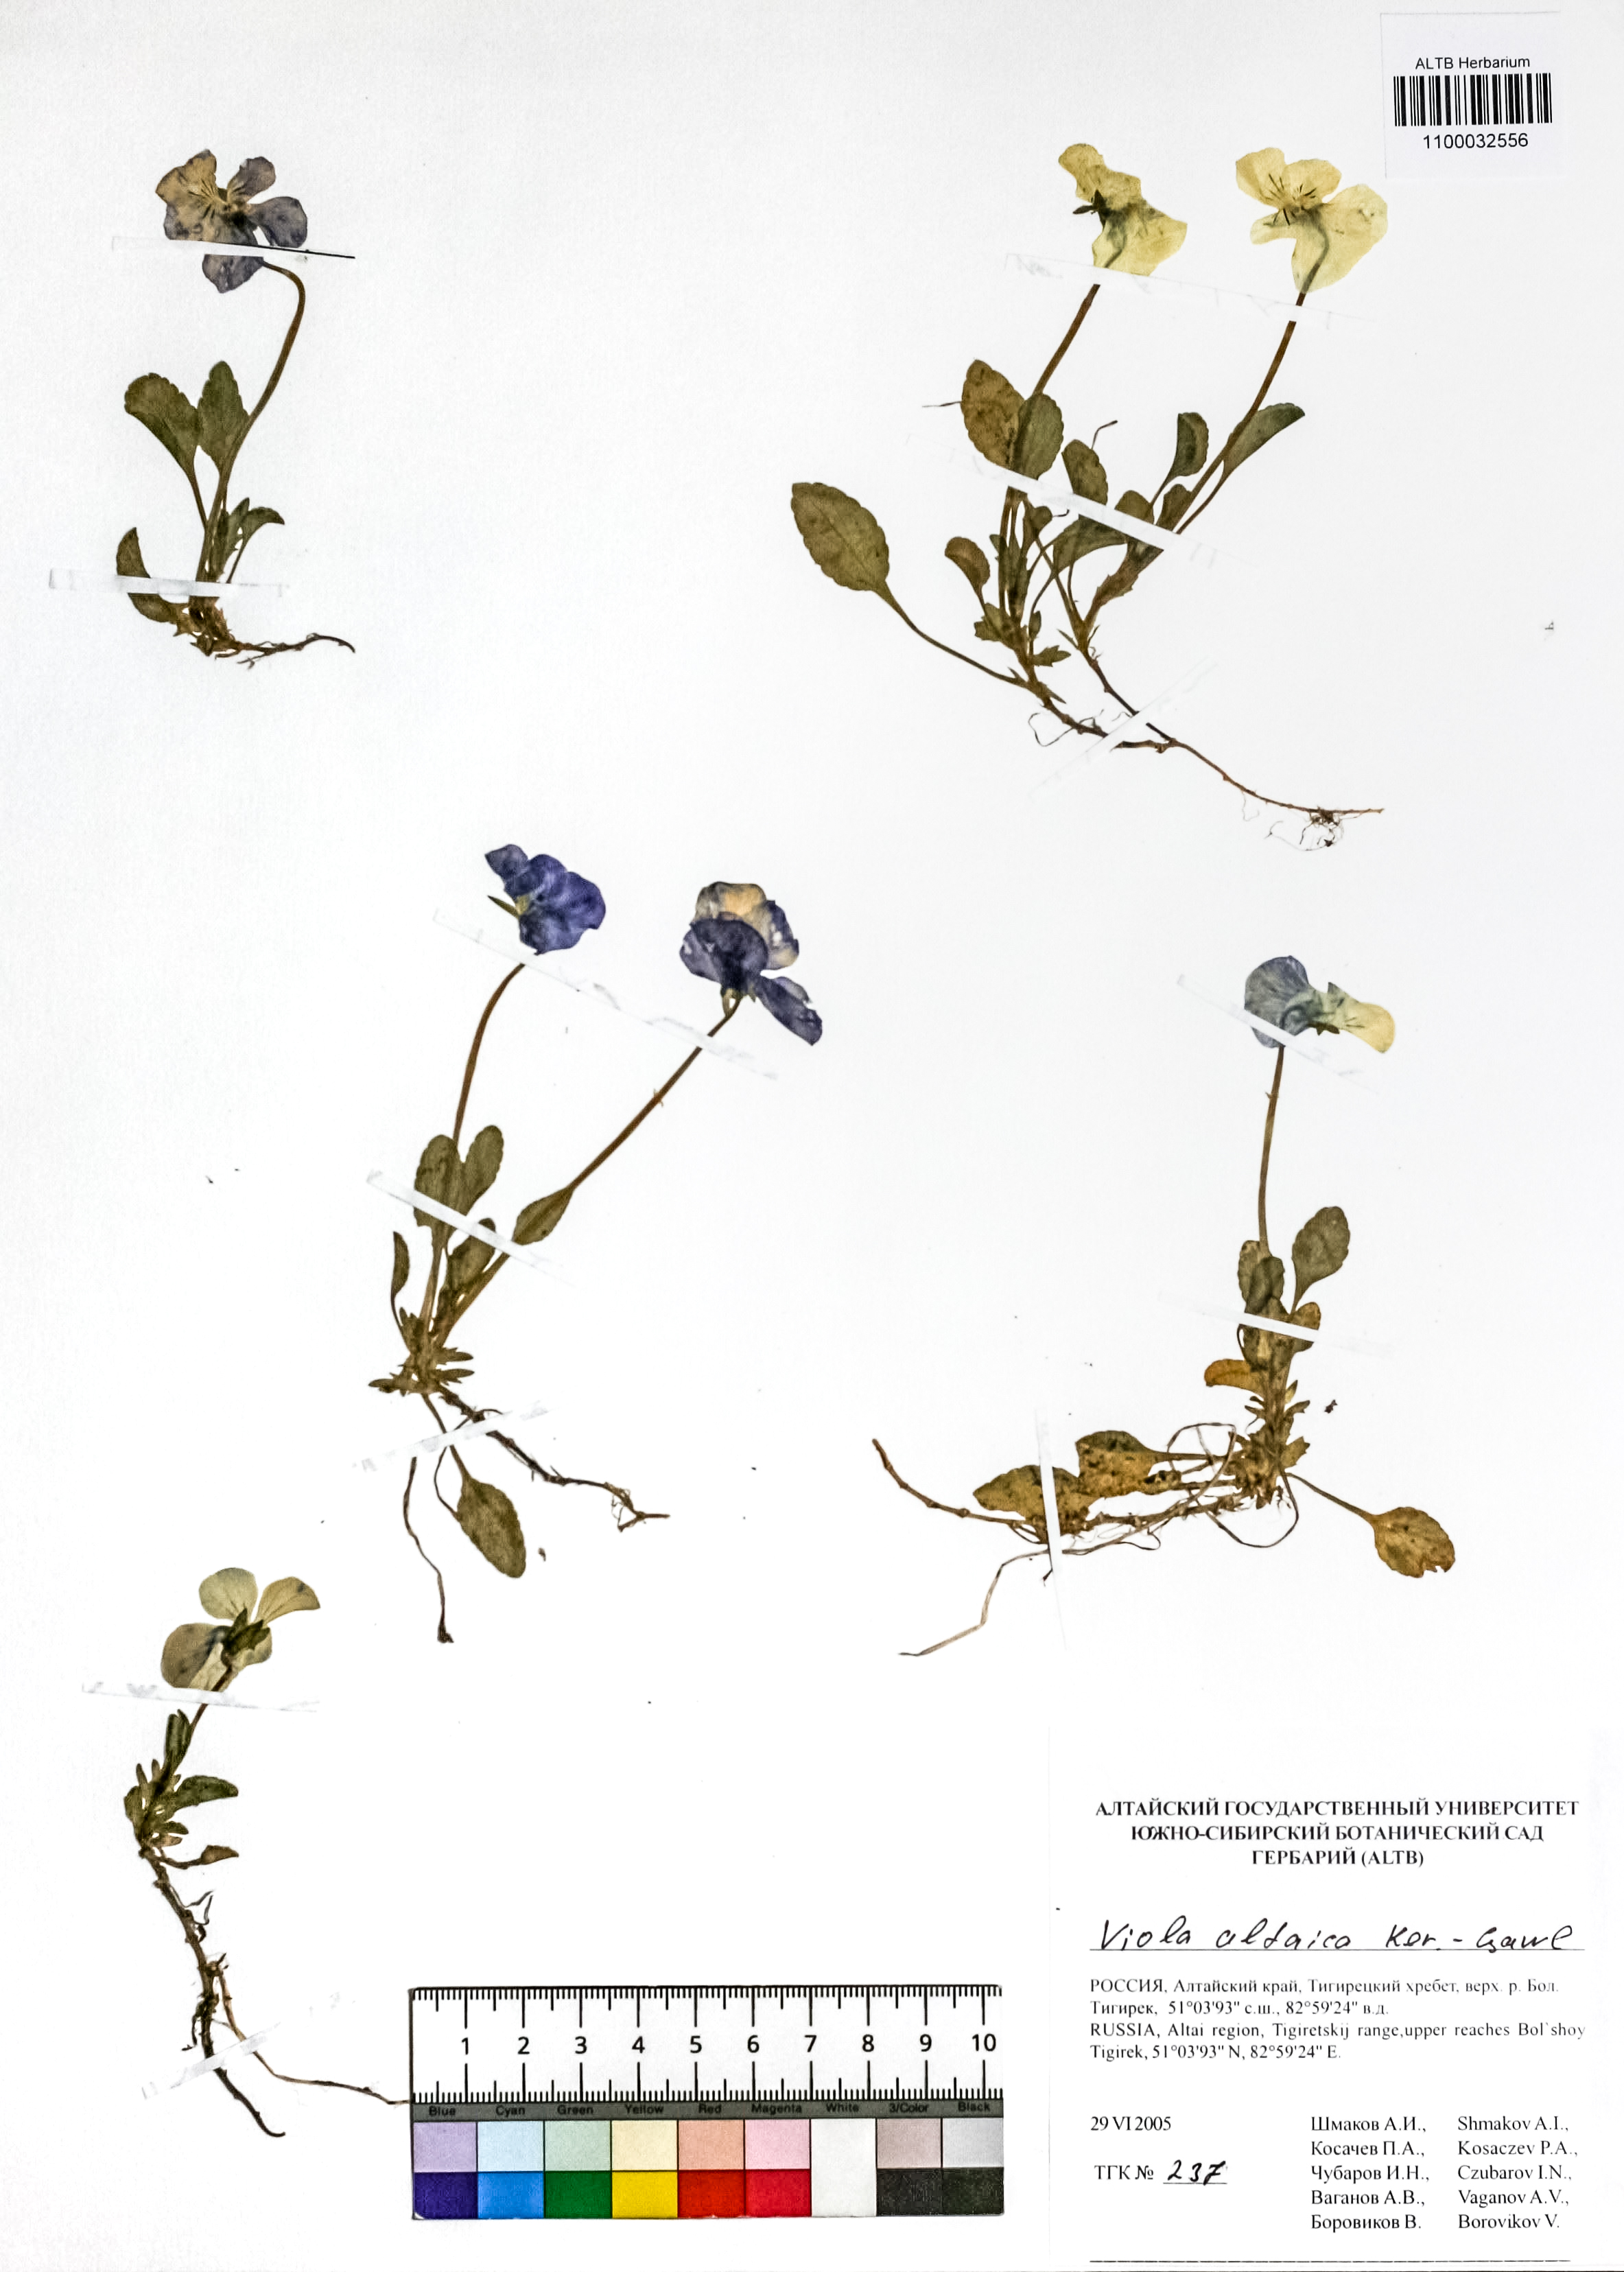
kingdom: Plantae
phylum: Tracheophyta
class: Magnoliopsida
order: Malpighiales
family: Violaceae
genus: Viola
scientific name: Viola altaica
